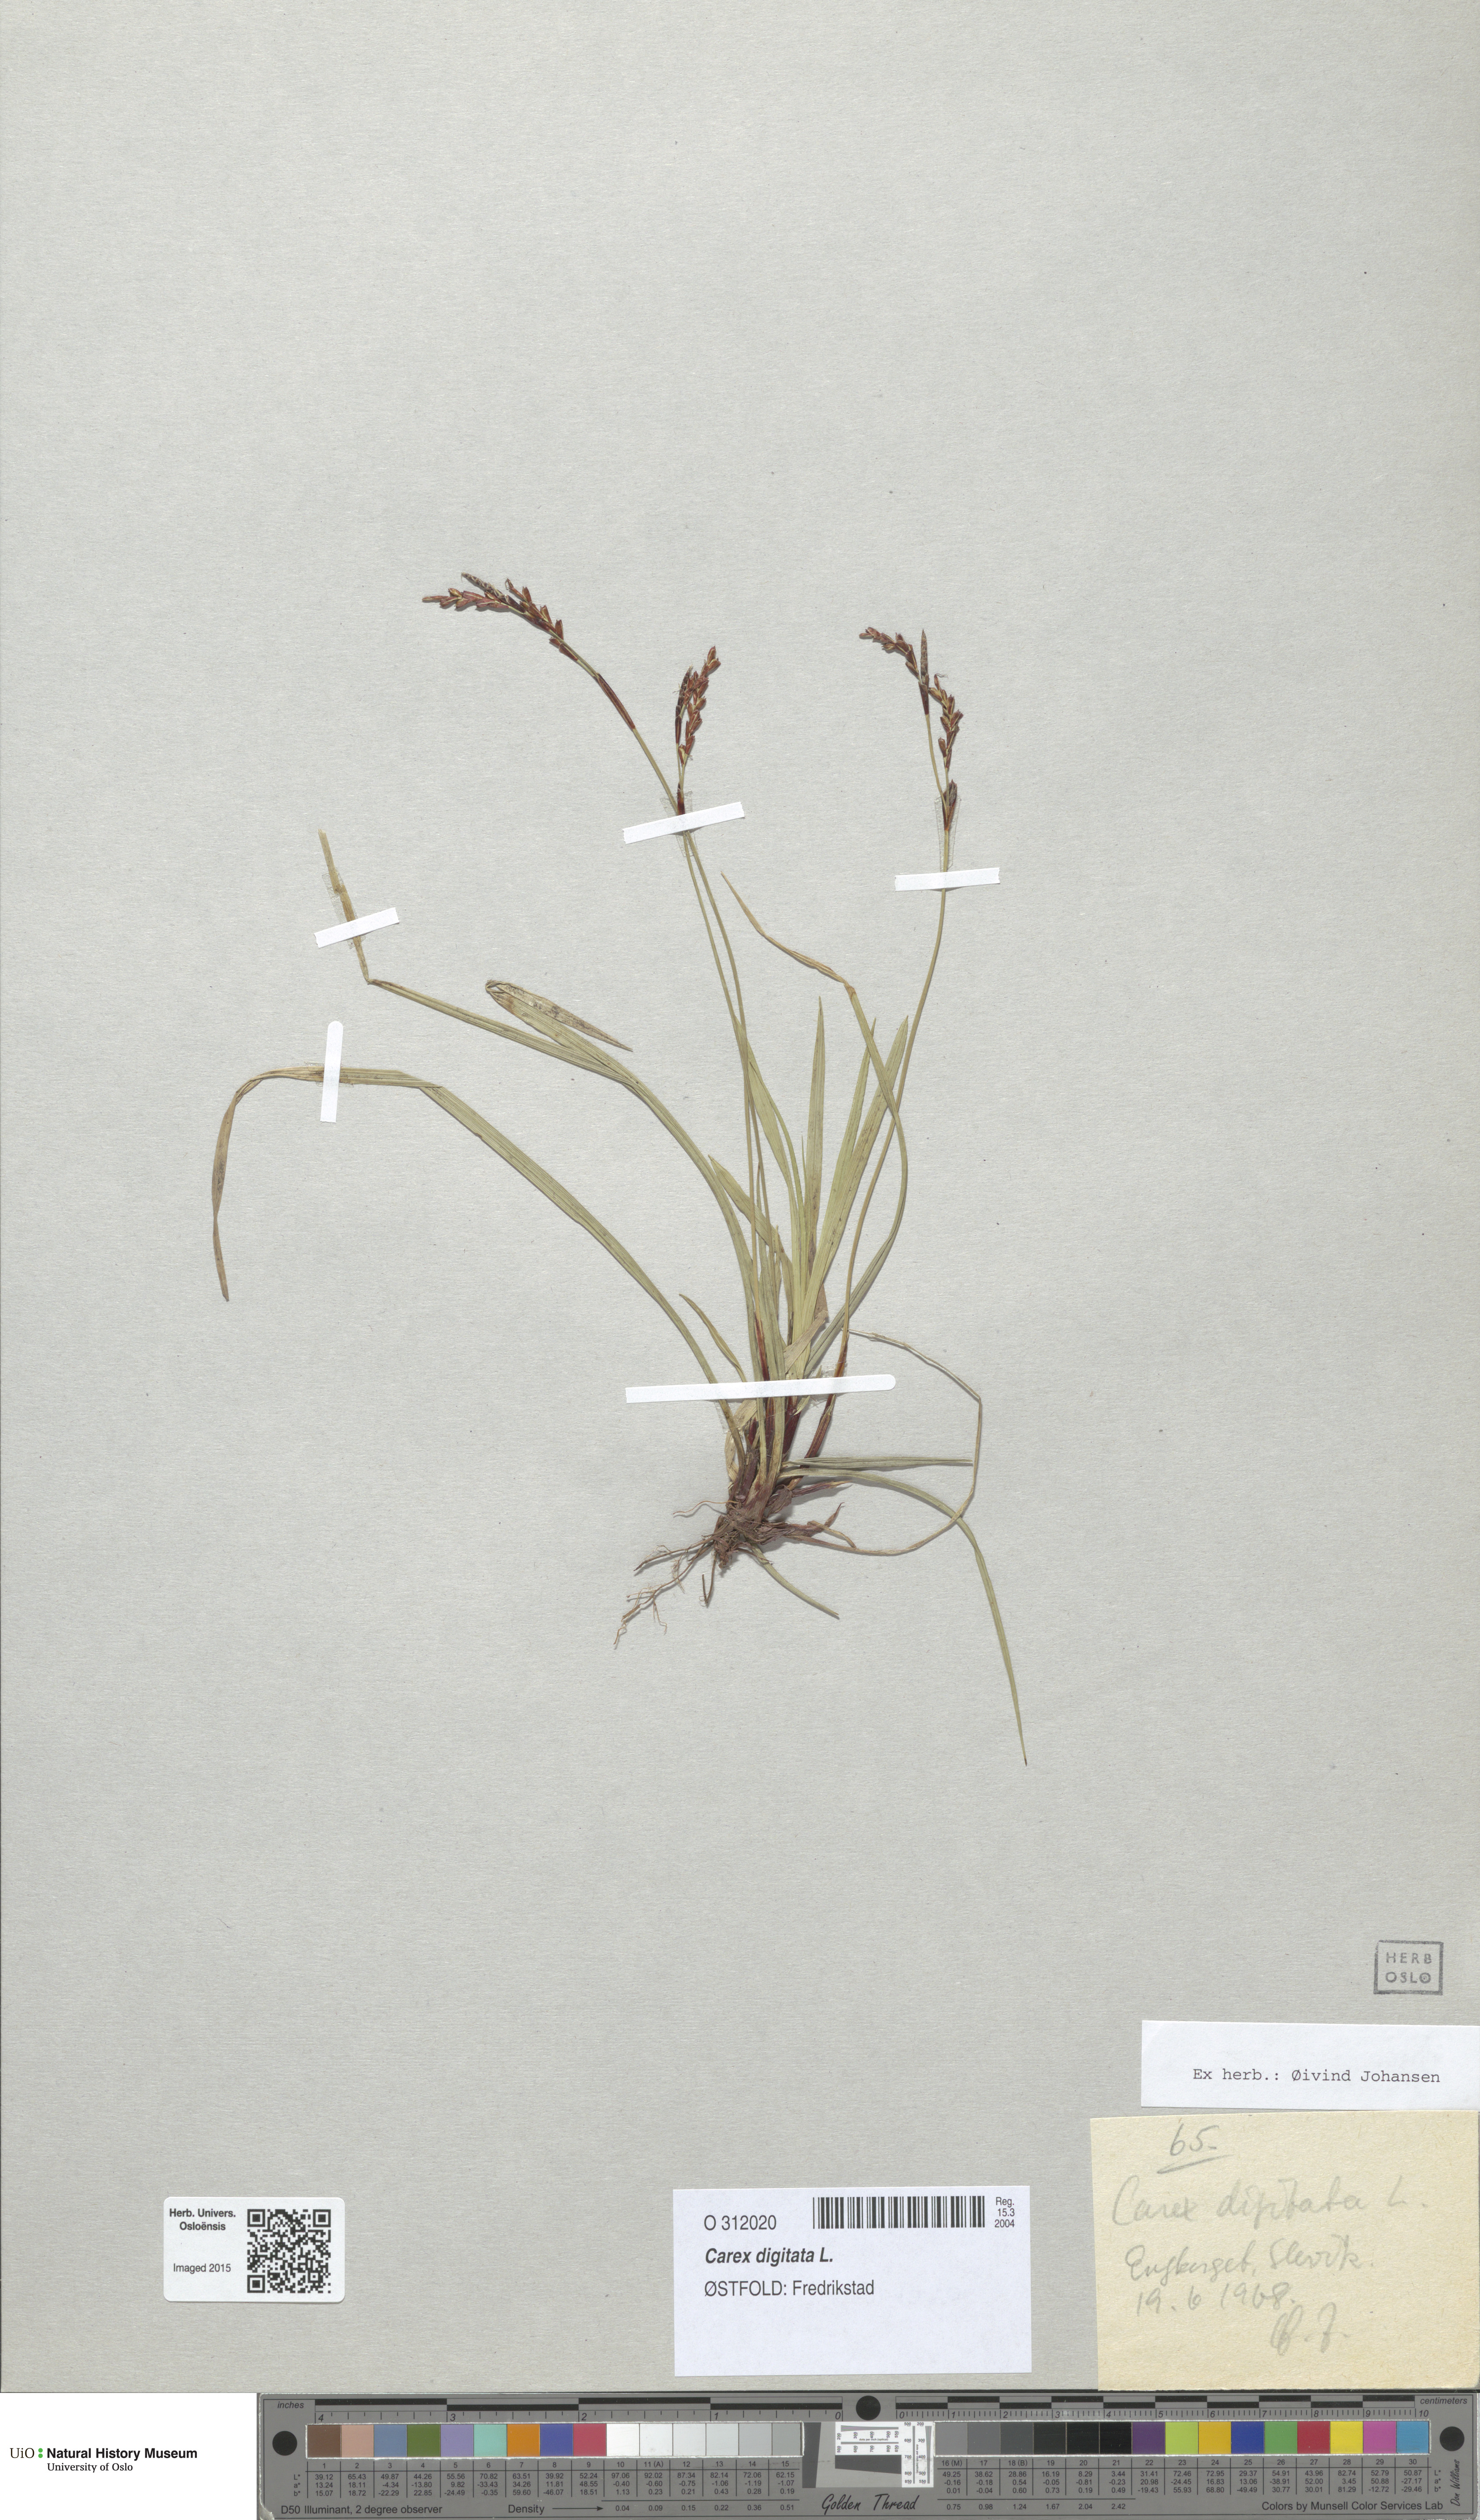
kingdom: Plantae
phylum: Tracheophyta
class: Liliopsida
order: Poales
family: Cyperaceae
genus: Carex
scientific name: Carex digitata
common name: Fingered sedge
